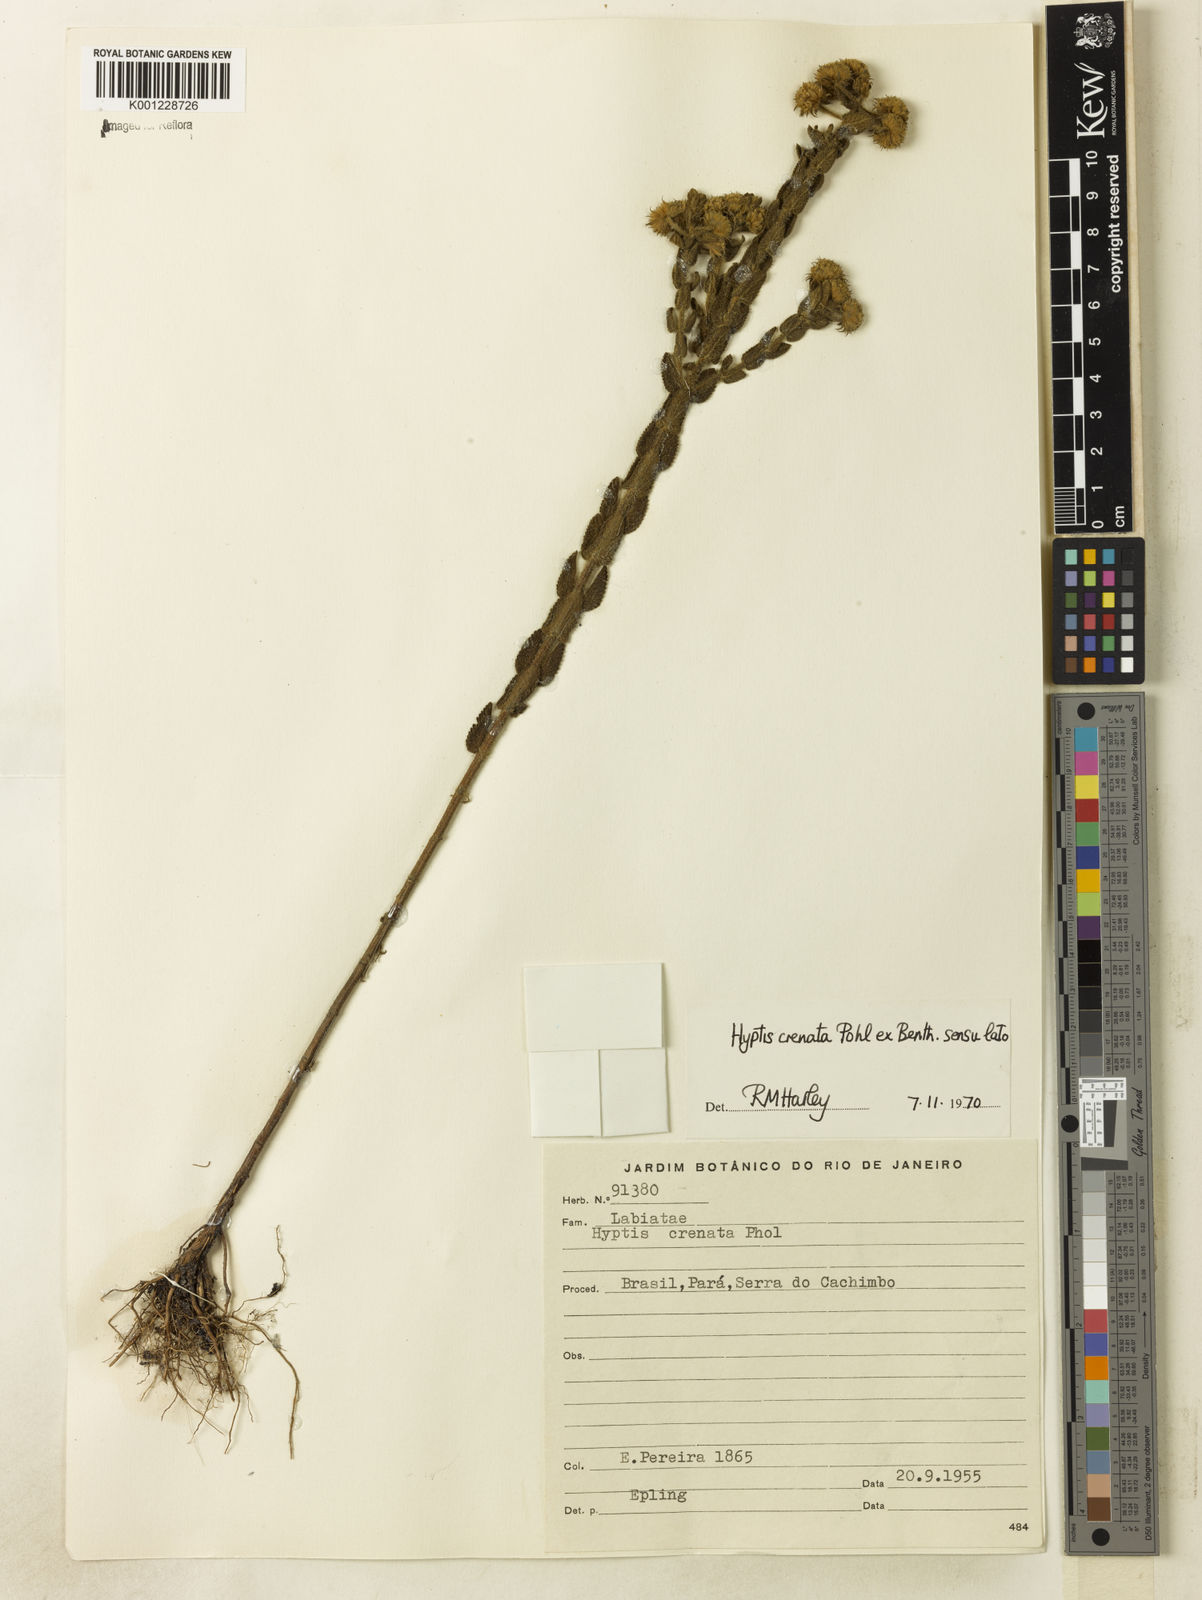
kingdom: Plantae
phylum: Tracheophyta
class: Magnoliopsida
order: Lamiales
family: Lamiaceae
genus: Hyptis
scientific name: Hyptis crenata
